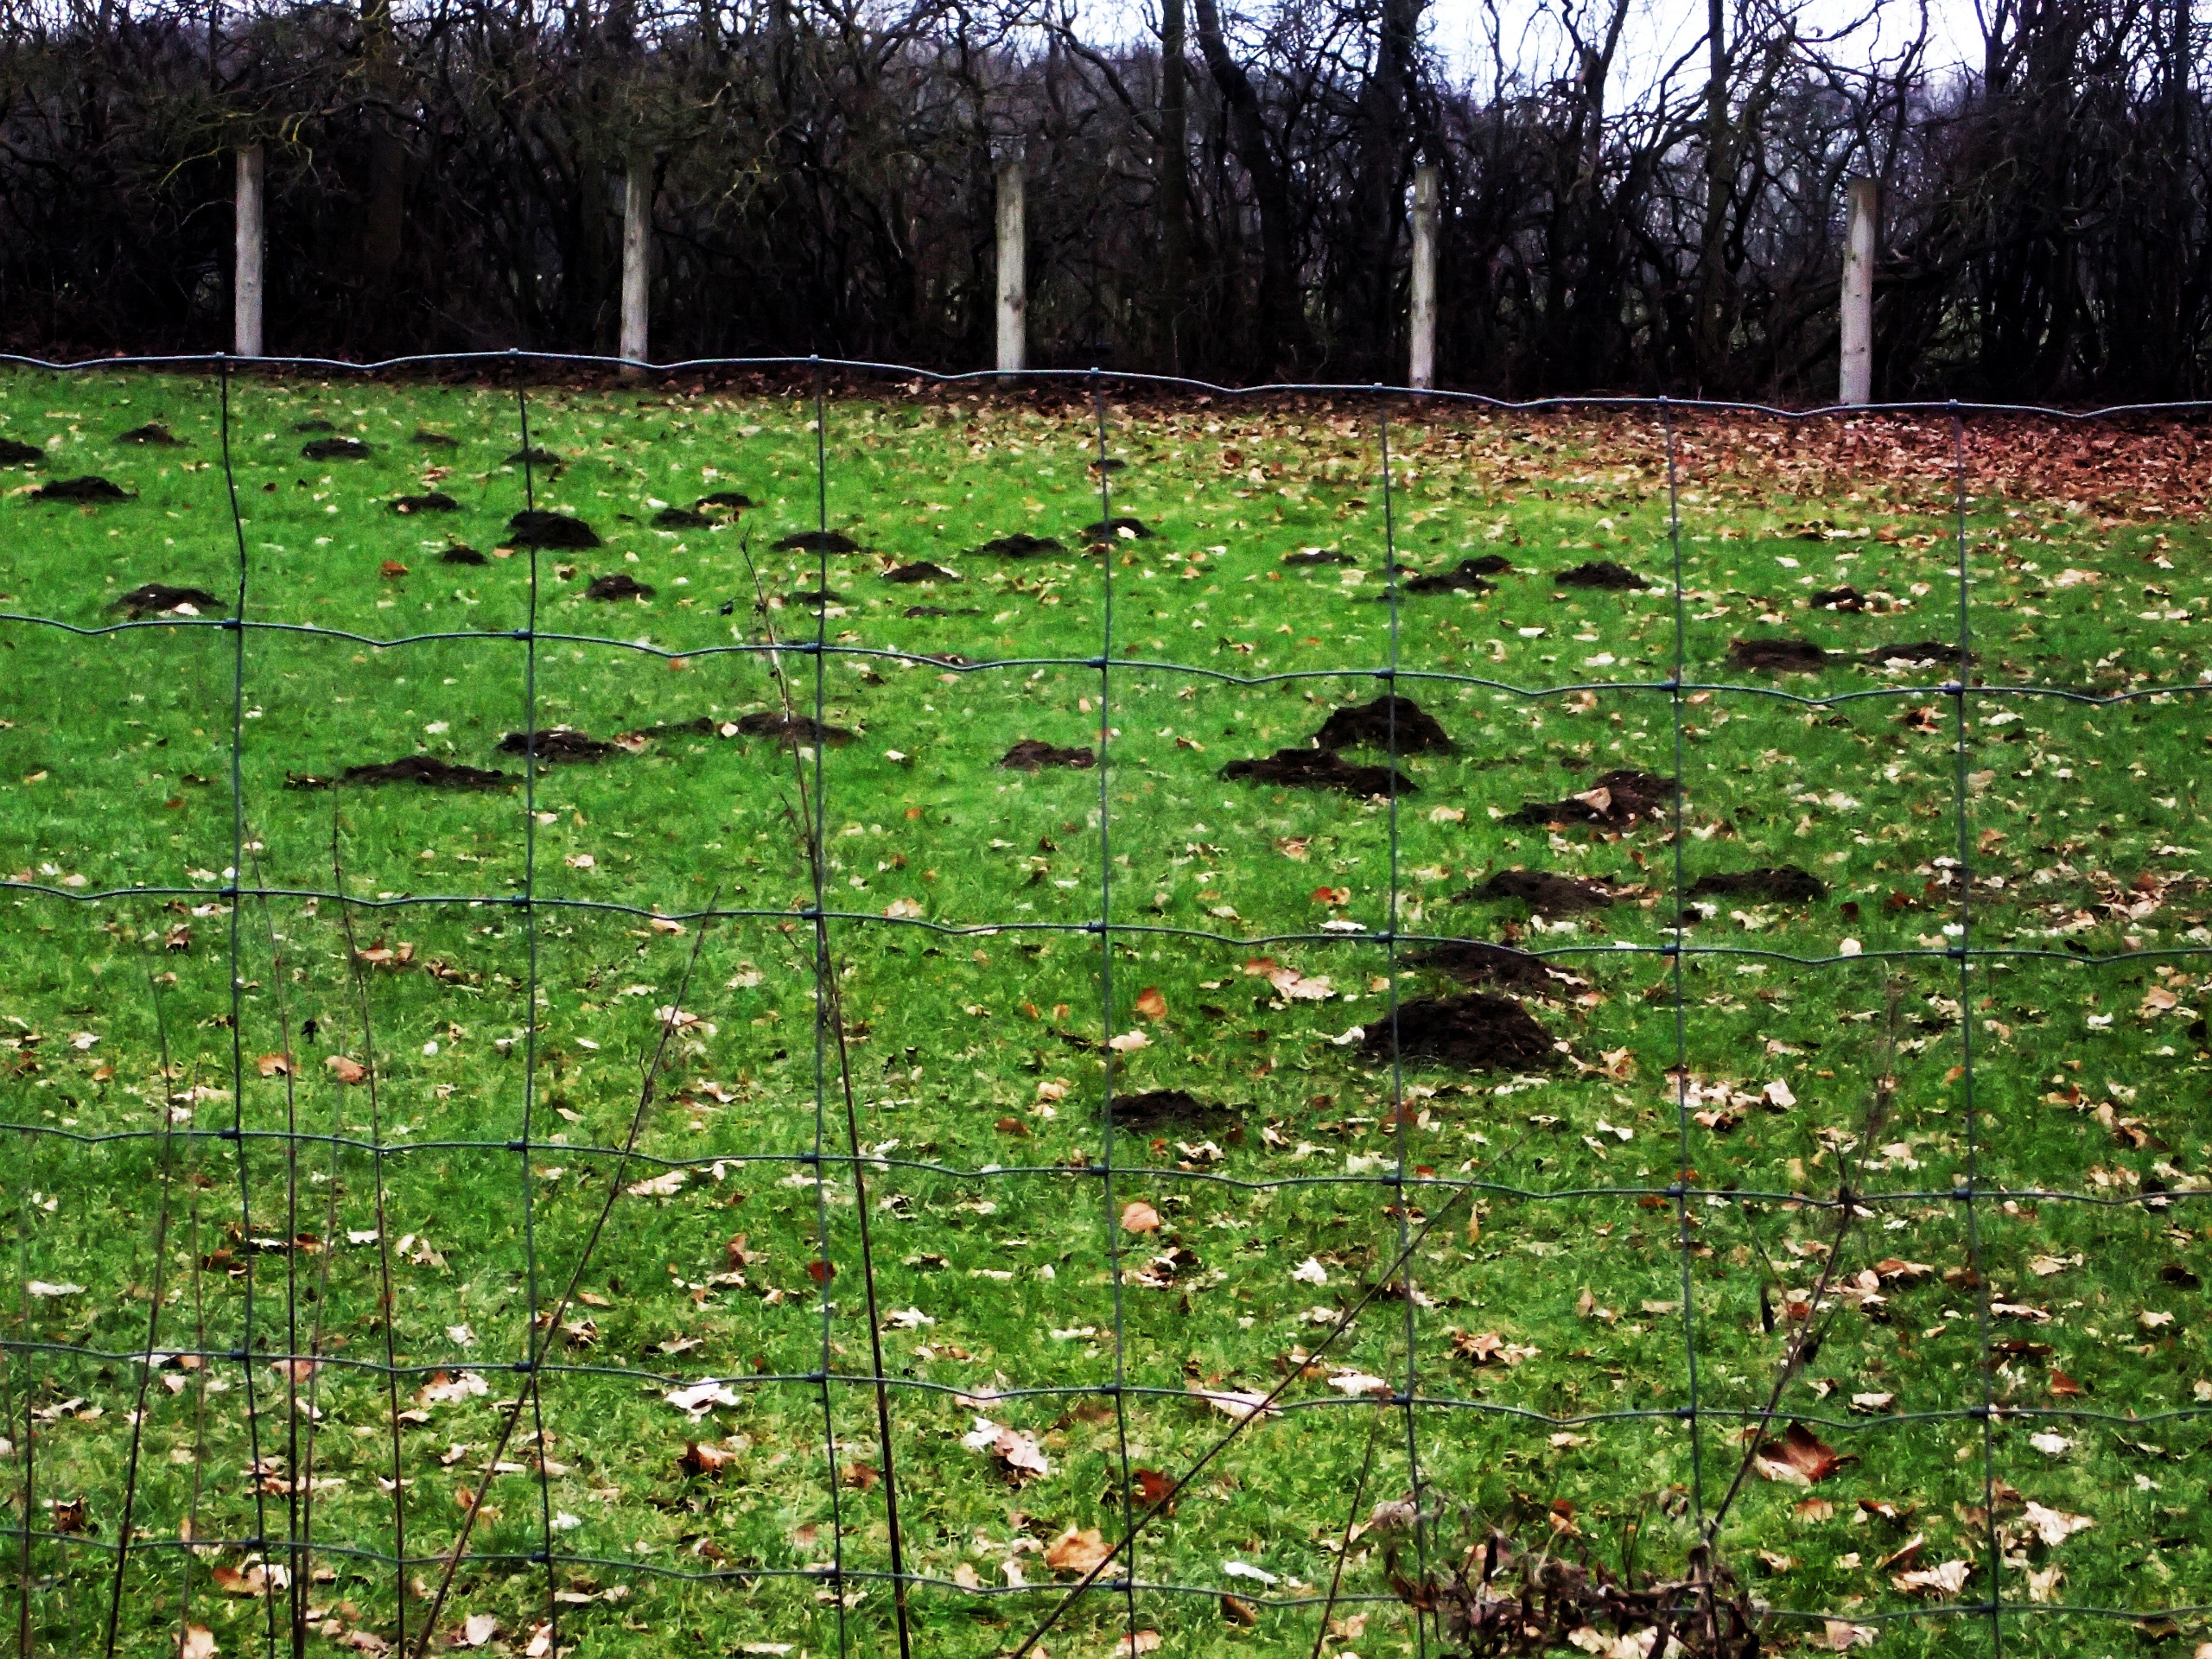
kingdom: Animalia
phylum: Chordata
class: Mammalia
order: Soricomorpha
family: Talpidae
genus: Talpa
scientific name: Talpa europaea
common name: Muldvarp
